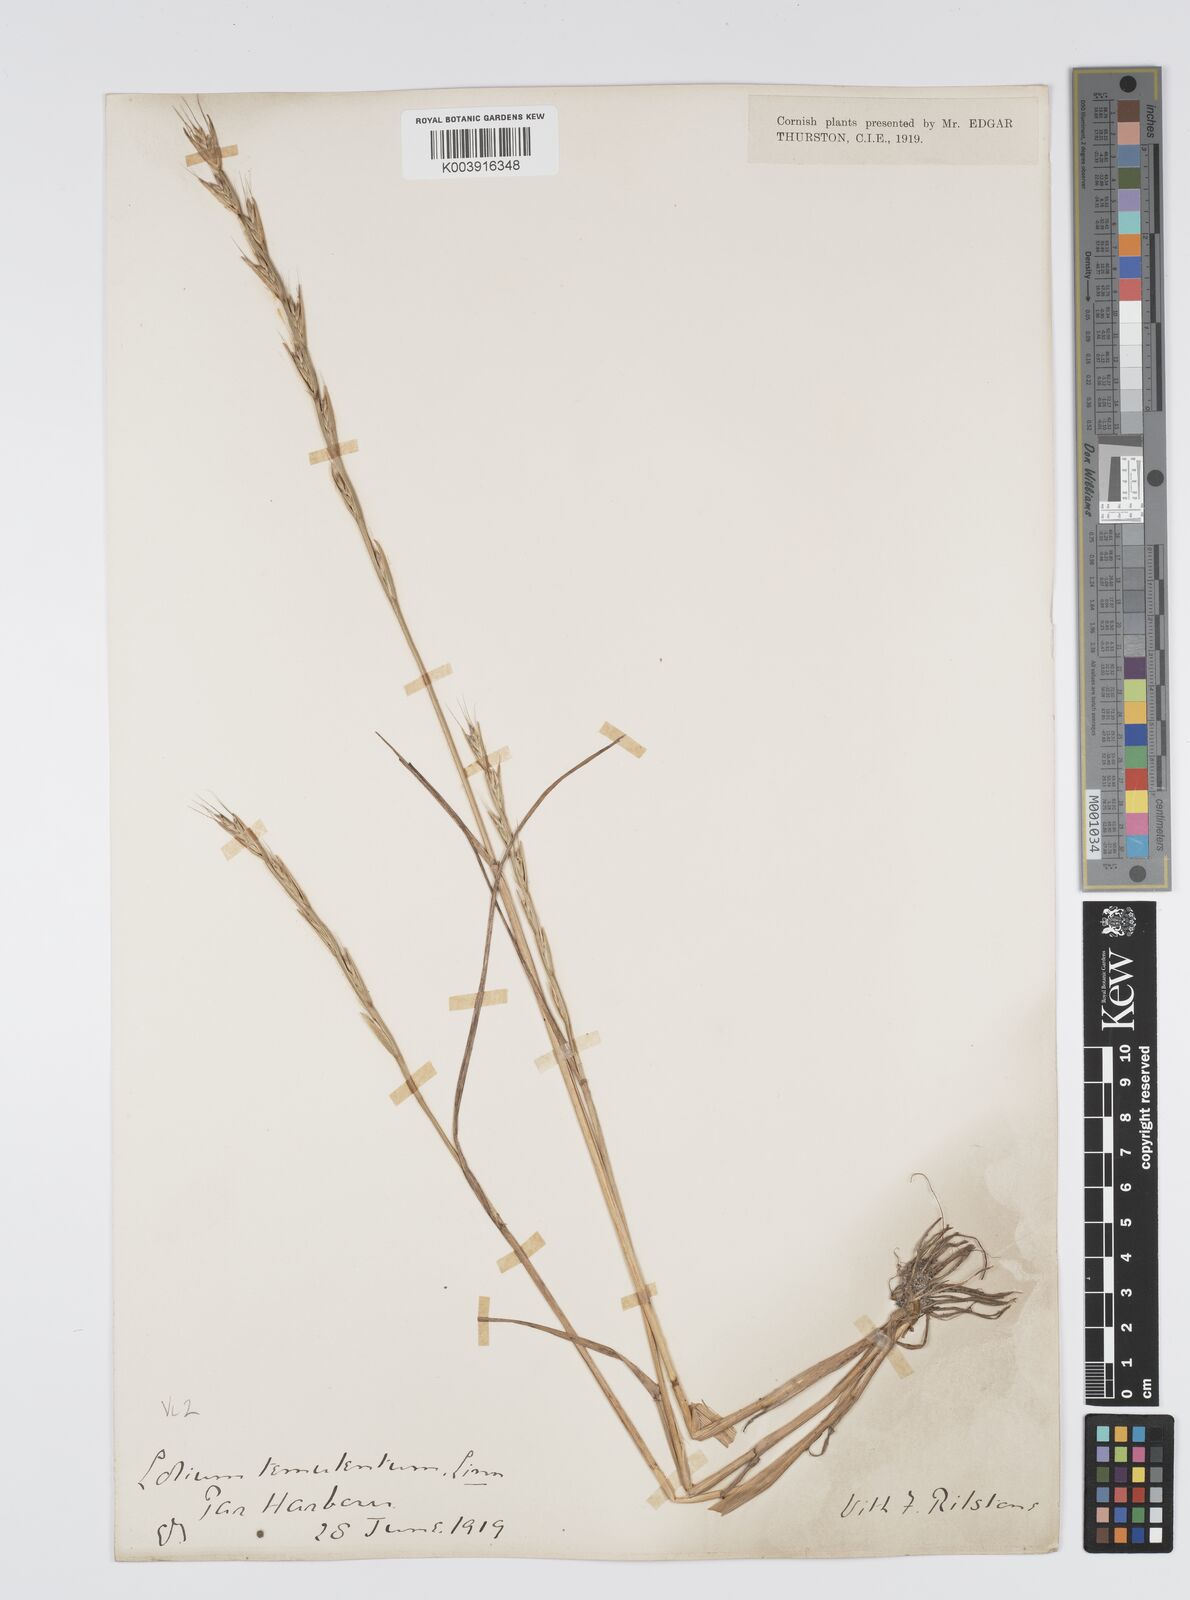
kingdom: Plantae
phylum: Tracheophyta
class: Liliopsida
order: Poales
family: Poaceae
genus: Lolium
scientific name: Lolium temulentum
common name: Darnel
